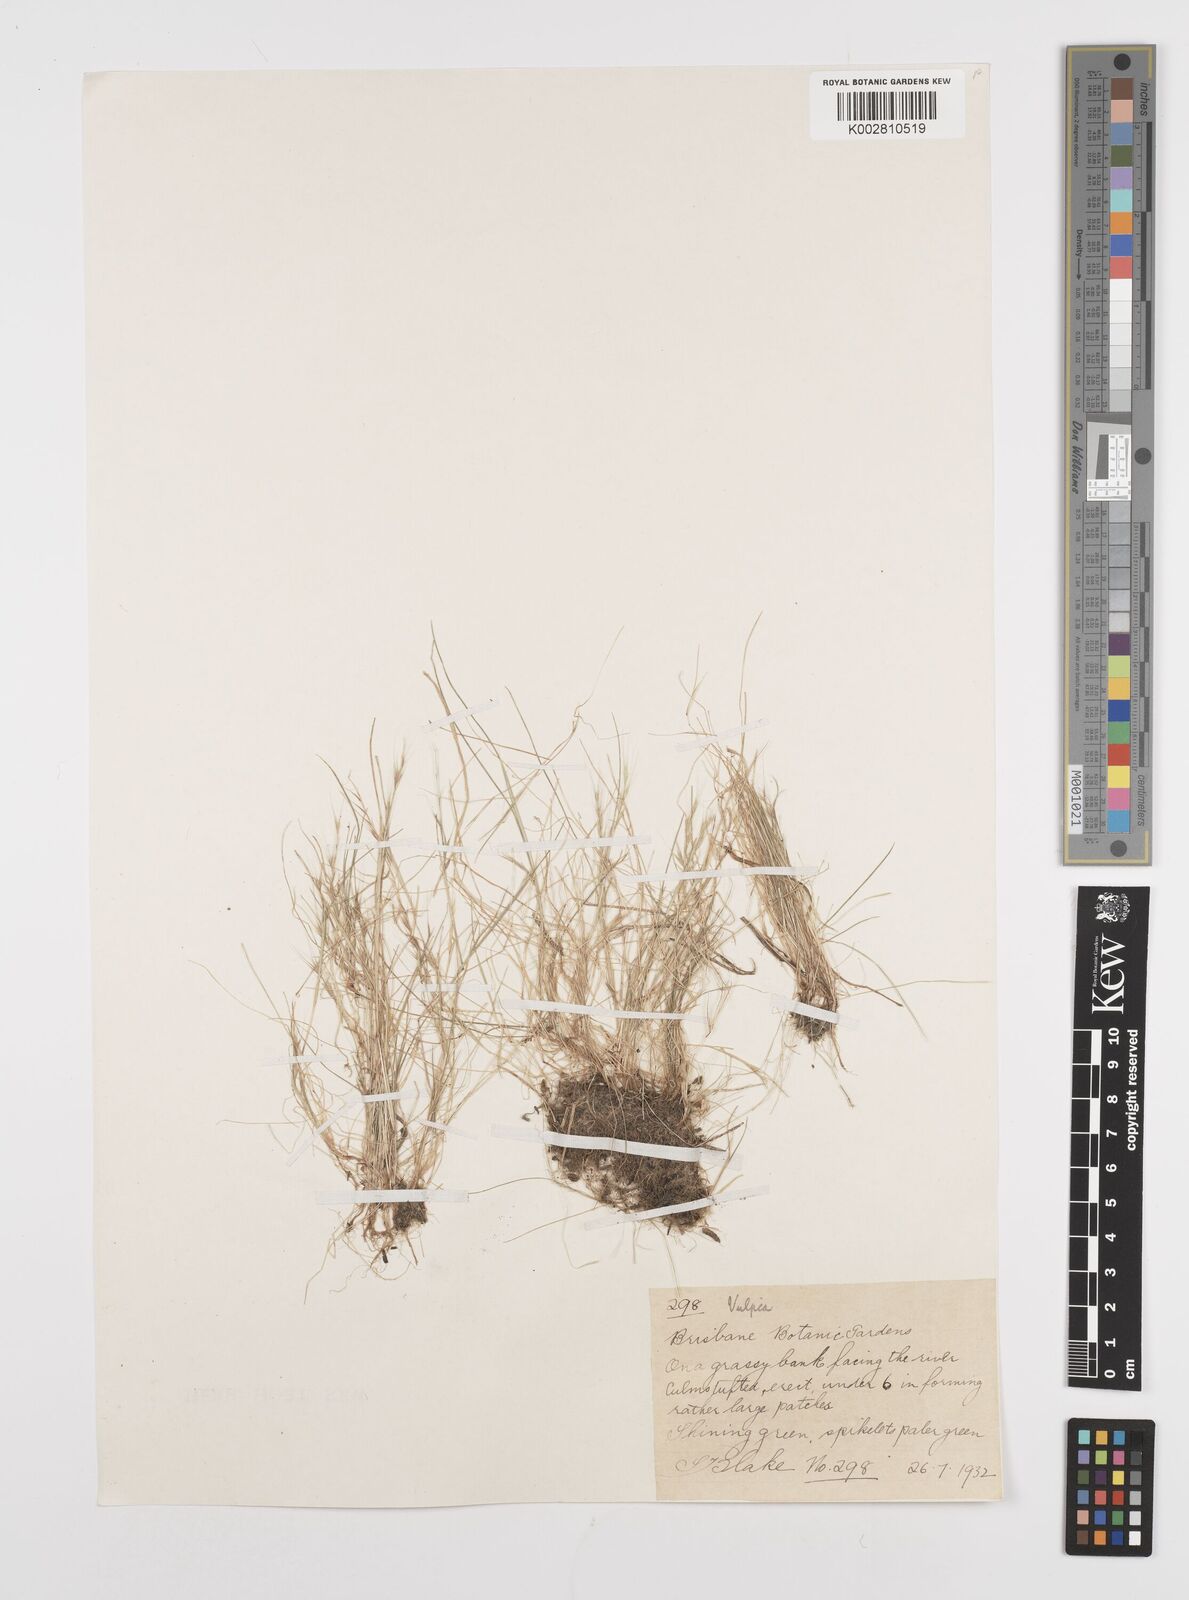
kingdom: Plantae
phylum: Tracheophyta
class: Liliopsida
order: Poales
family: Poaceae
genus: Festuca
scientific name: Festuca myuros
